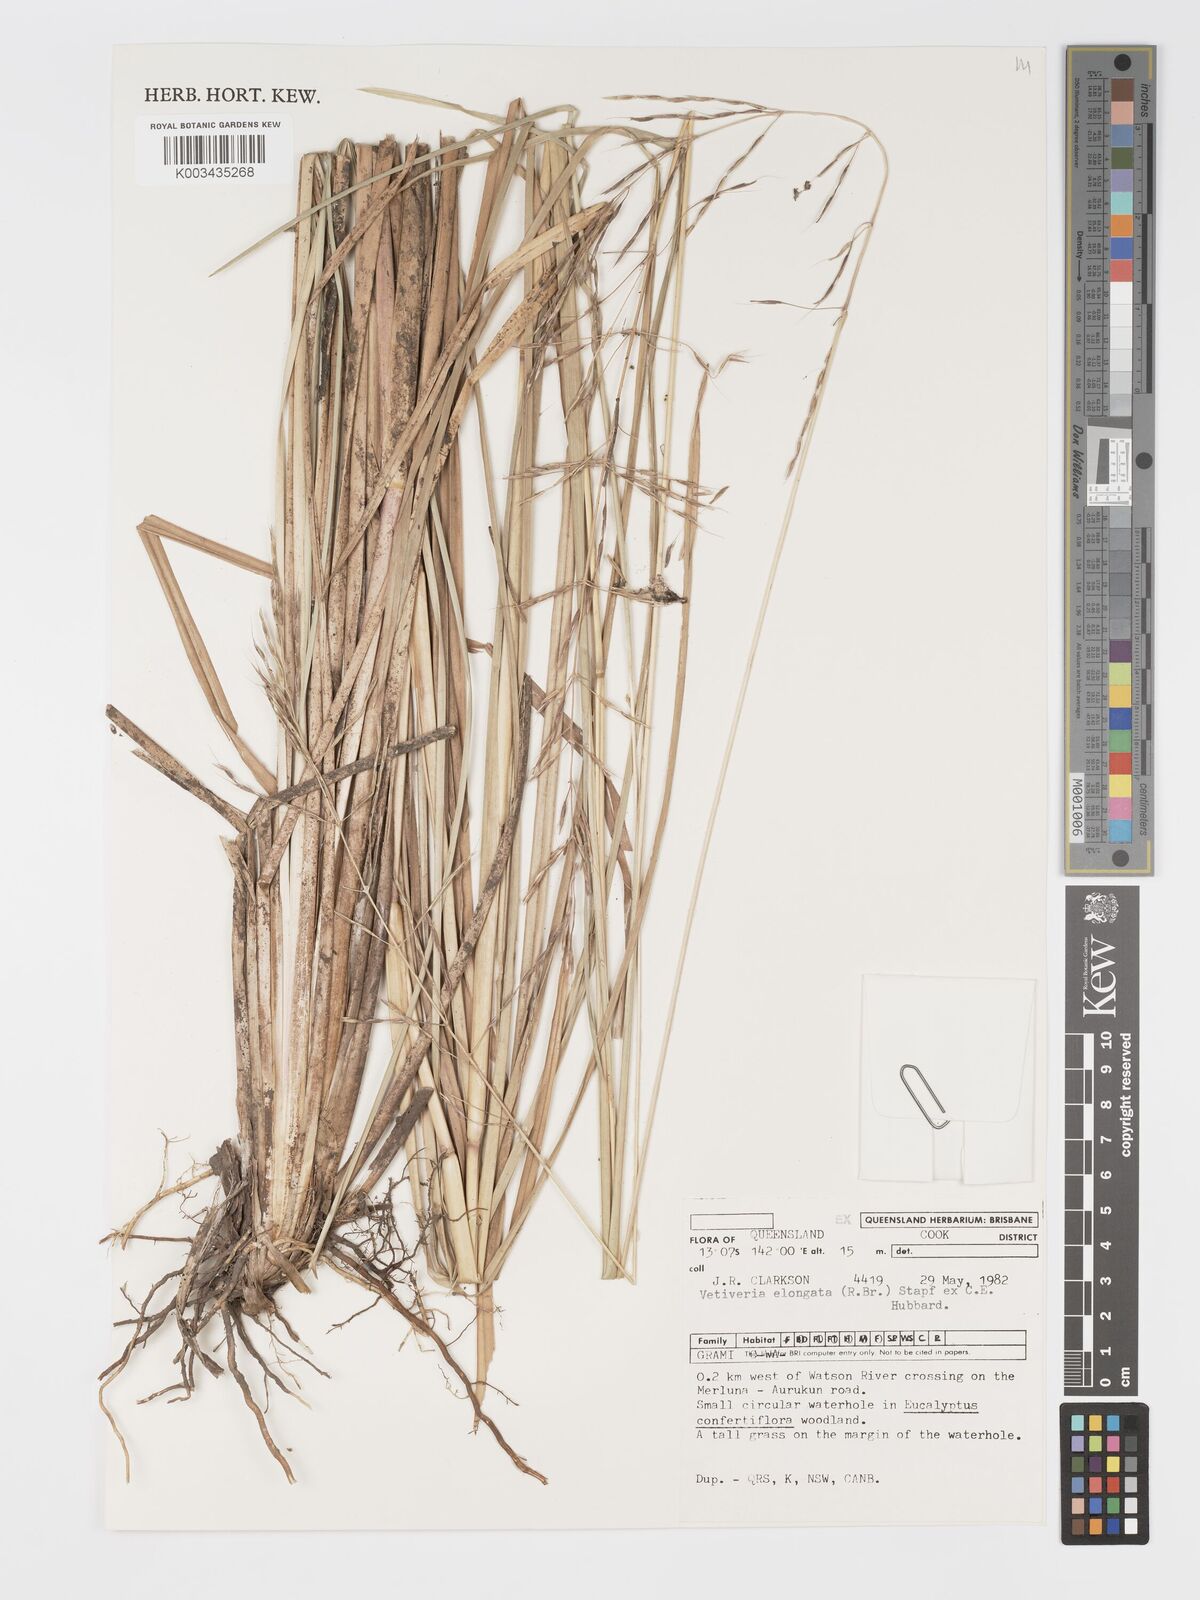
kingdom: Plantae
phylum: Tracheophyta
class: Liliopsida
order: Poales
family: Poaceae
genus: Chrysopogon
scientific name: Chrysopogon elongatus
